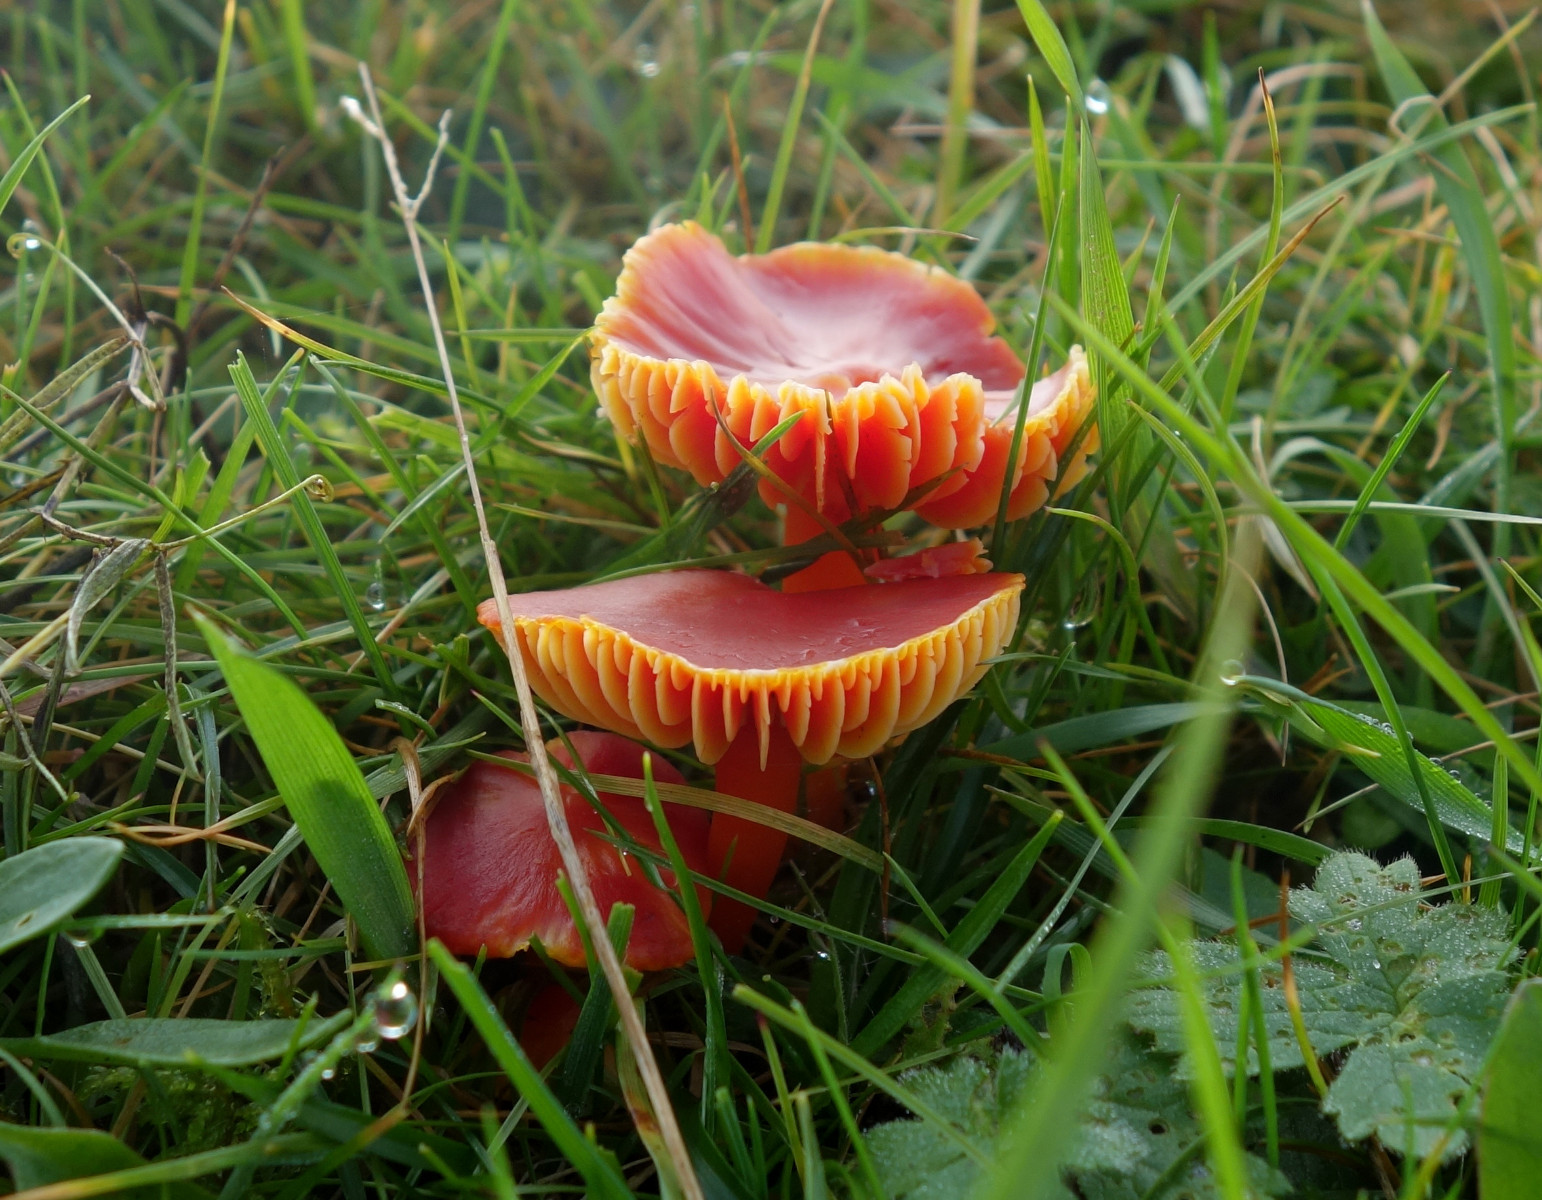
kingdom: Fungi
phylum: Basidiomycota
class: Agaricomycetes
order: Agaricales
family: Hygrophoraceae
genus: Hygrocybe
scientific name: Hygrocybe coccinea
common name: cinnober-vokshat
